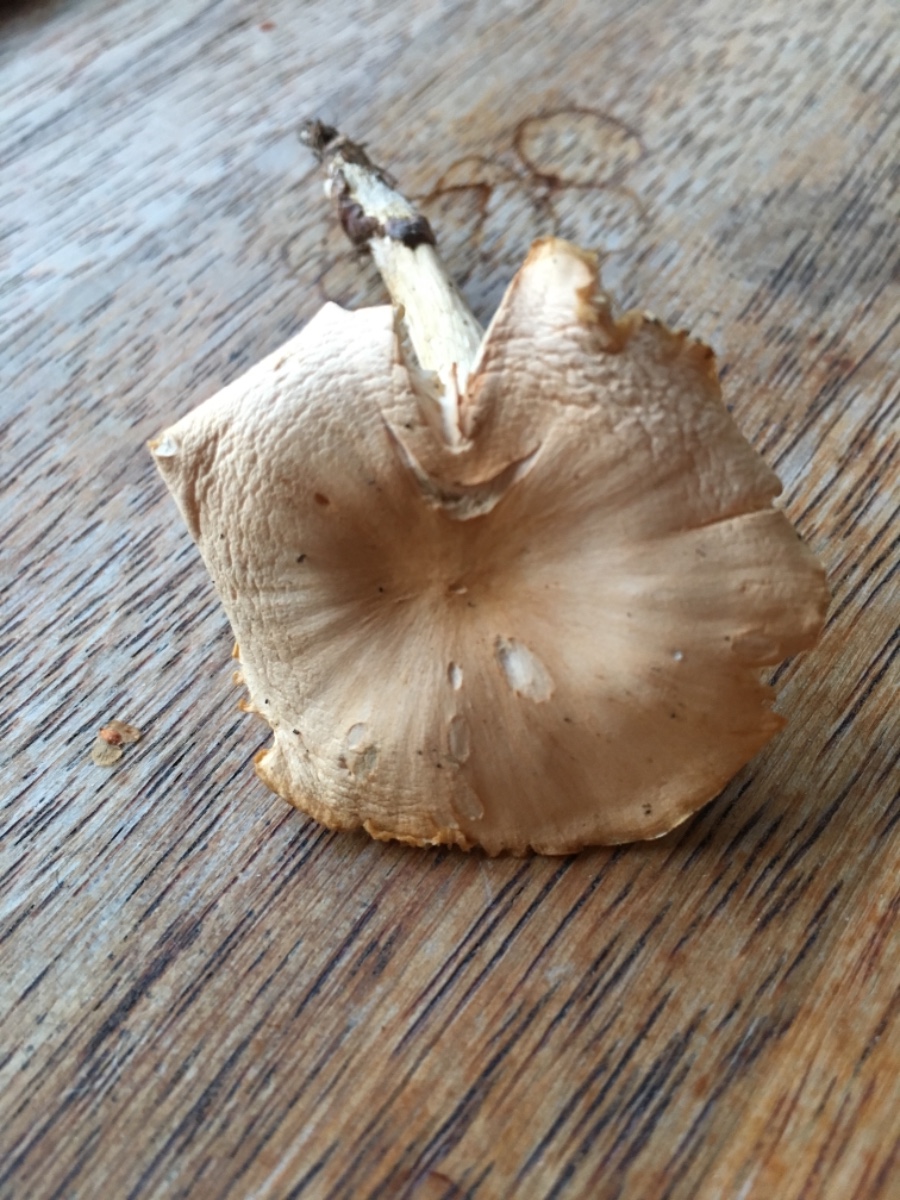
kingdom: Fungi
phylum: Basidiomycota
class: Agaricomycetes
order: Agaricales
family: Hygrophoraceae
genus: Cuphophyllus
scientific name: Cuphophyllus pratensis
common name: eng-vokshat
